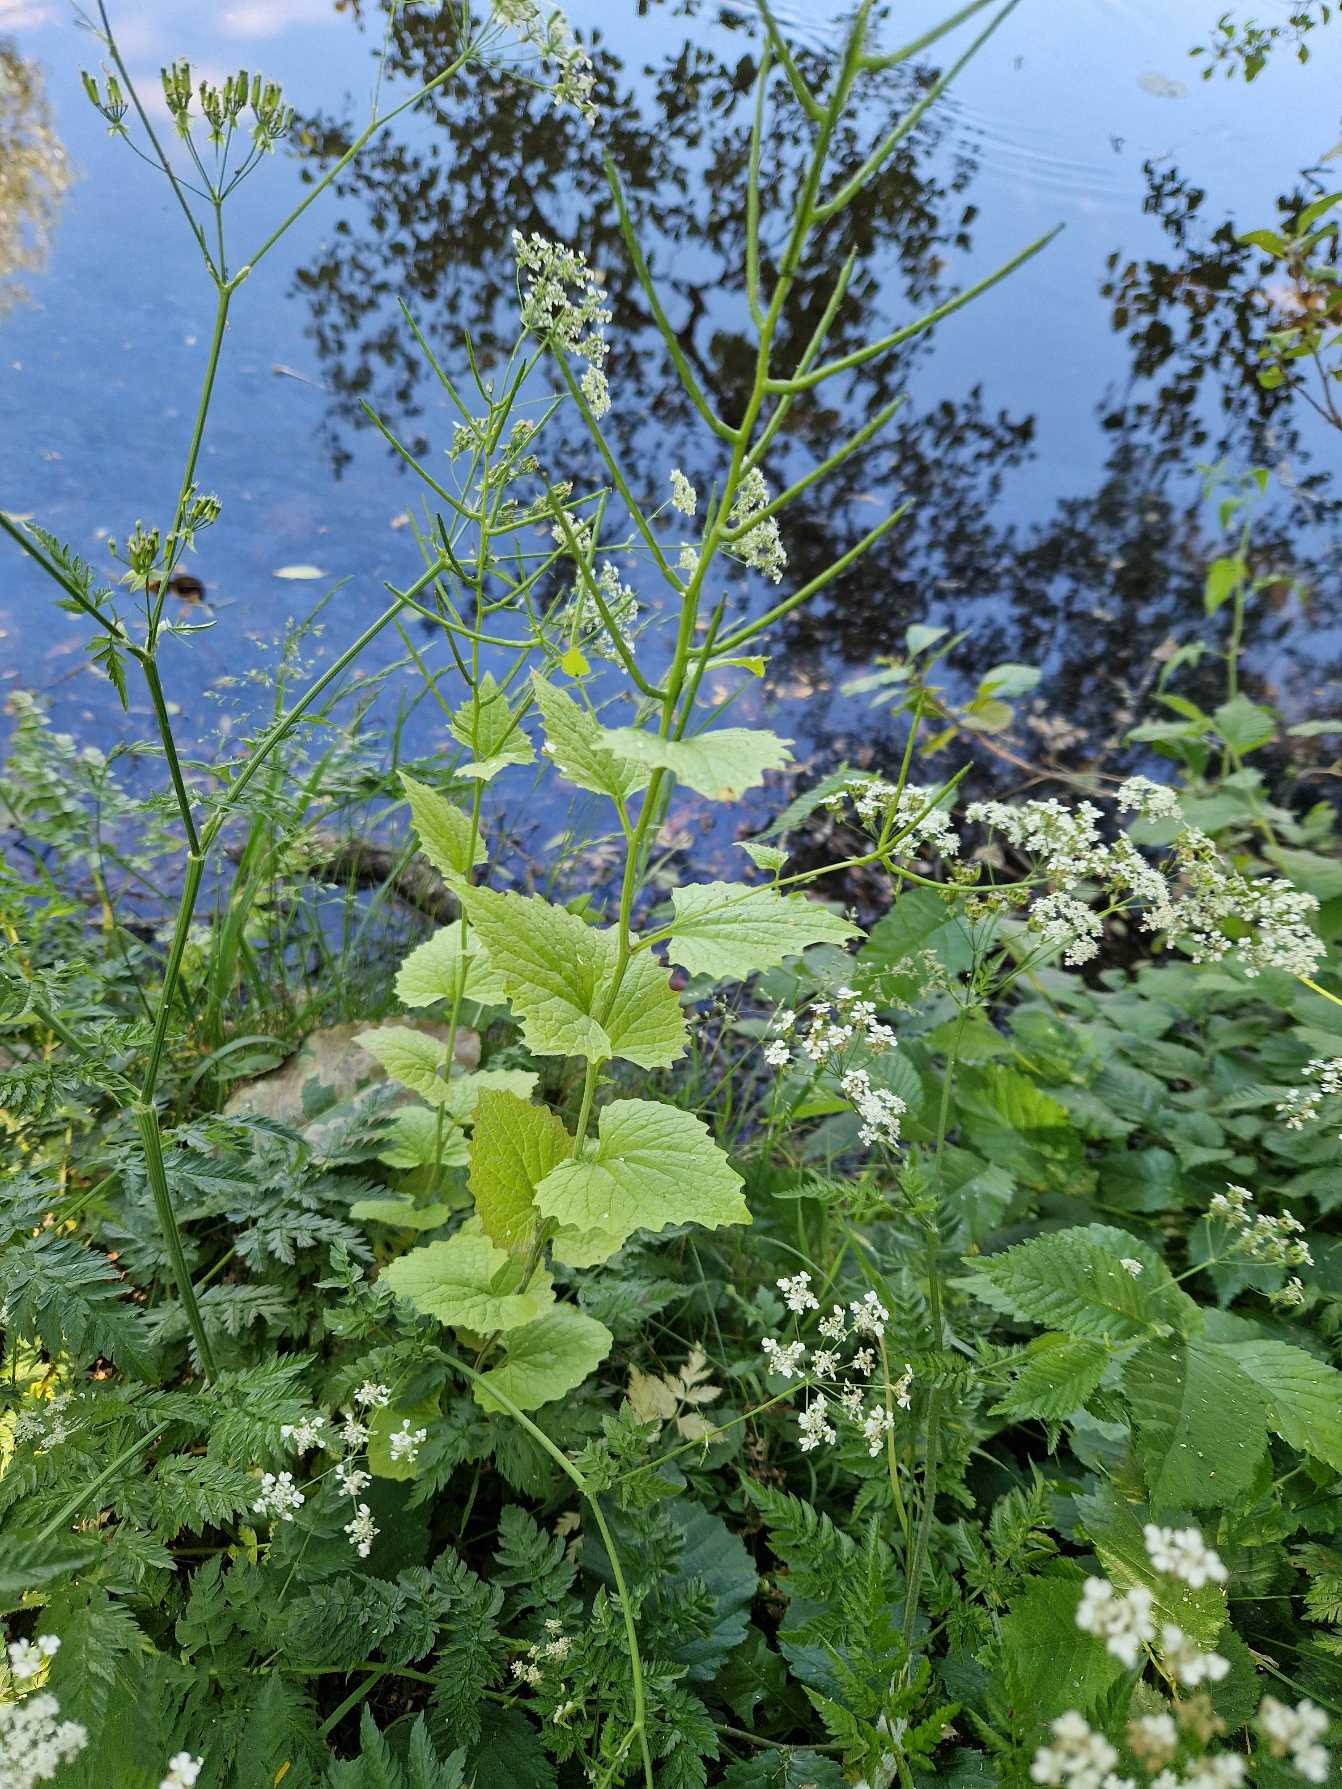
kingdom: Plantae
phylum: Tracheophyta
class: Magnoliopsida
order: Brassicales
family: Brassicaceae
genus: Alliaria
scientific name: Alliaria petiolata
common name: Løgkarse
